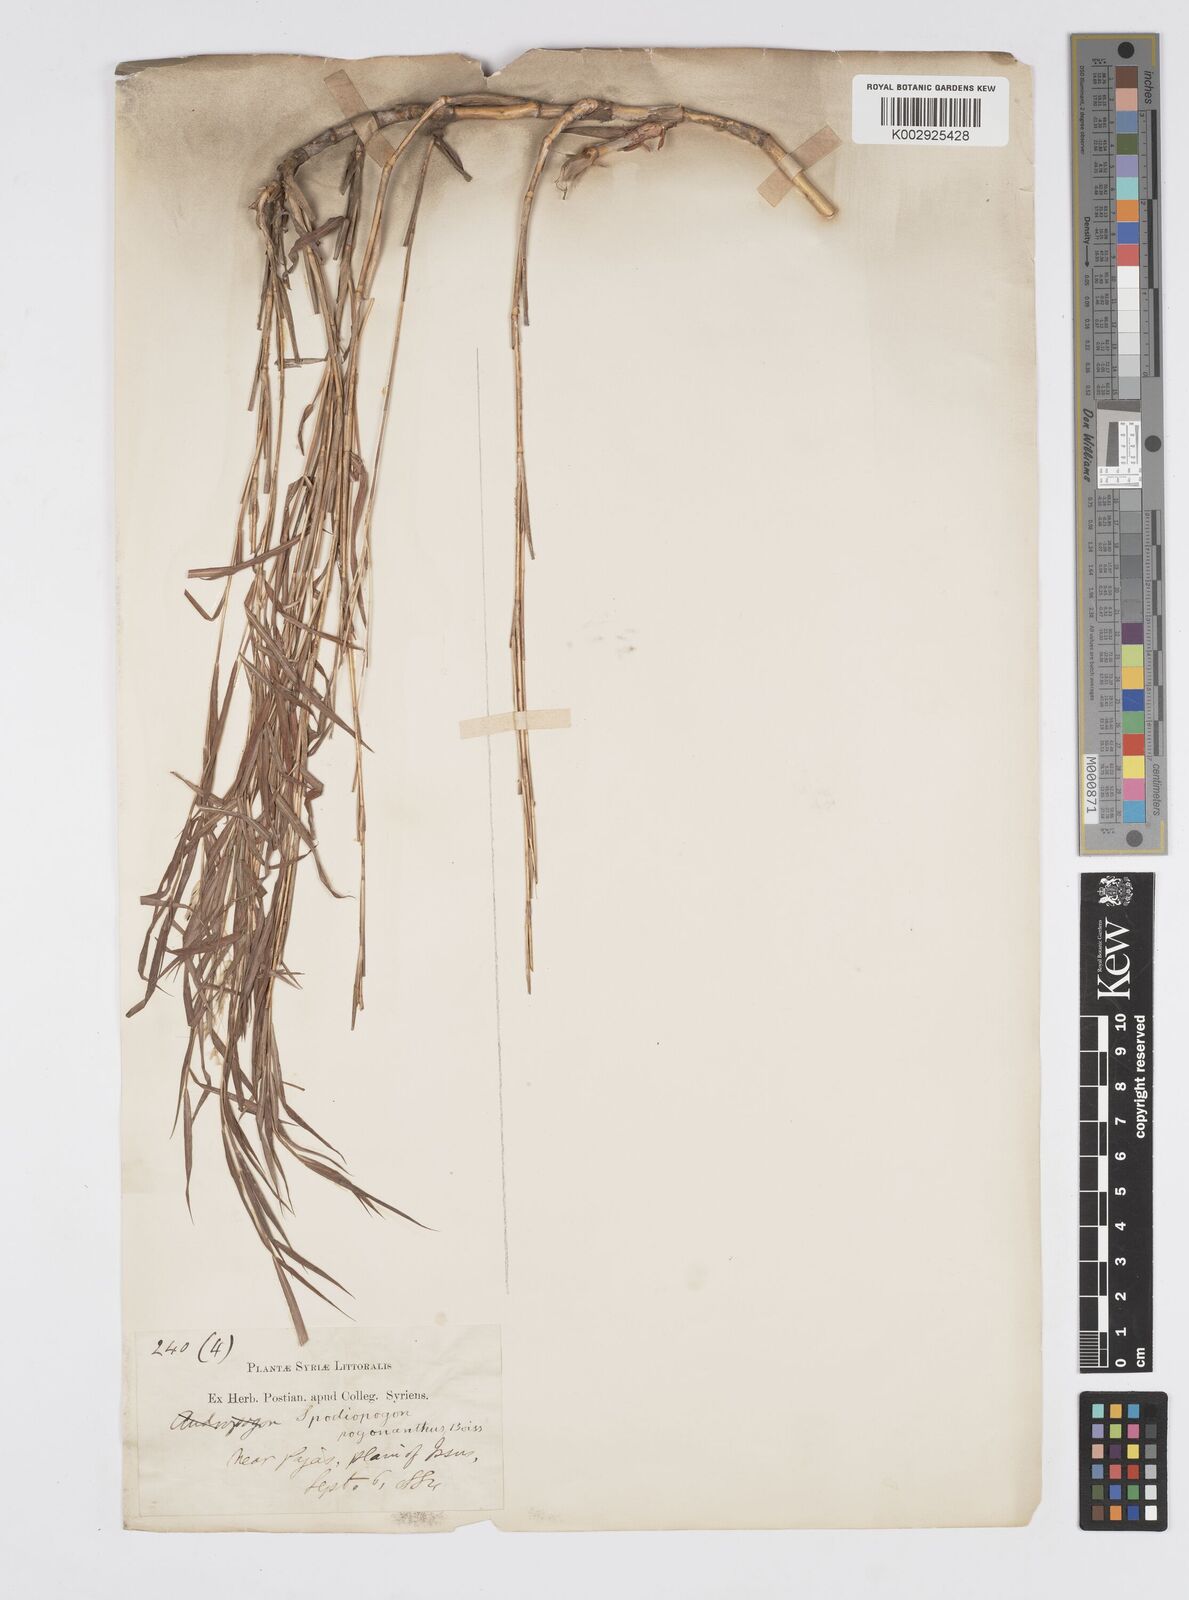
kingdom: Plantae
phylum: Tracheophyta
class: Liliopsida
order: Poales
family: Poaceae
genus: Spodiopogon
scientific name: Spodiopogon pogonanthus
